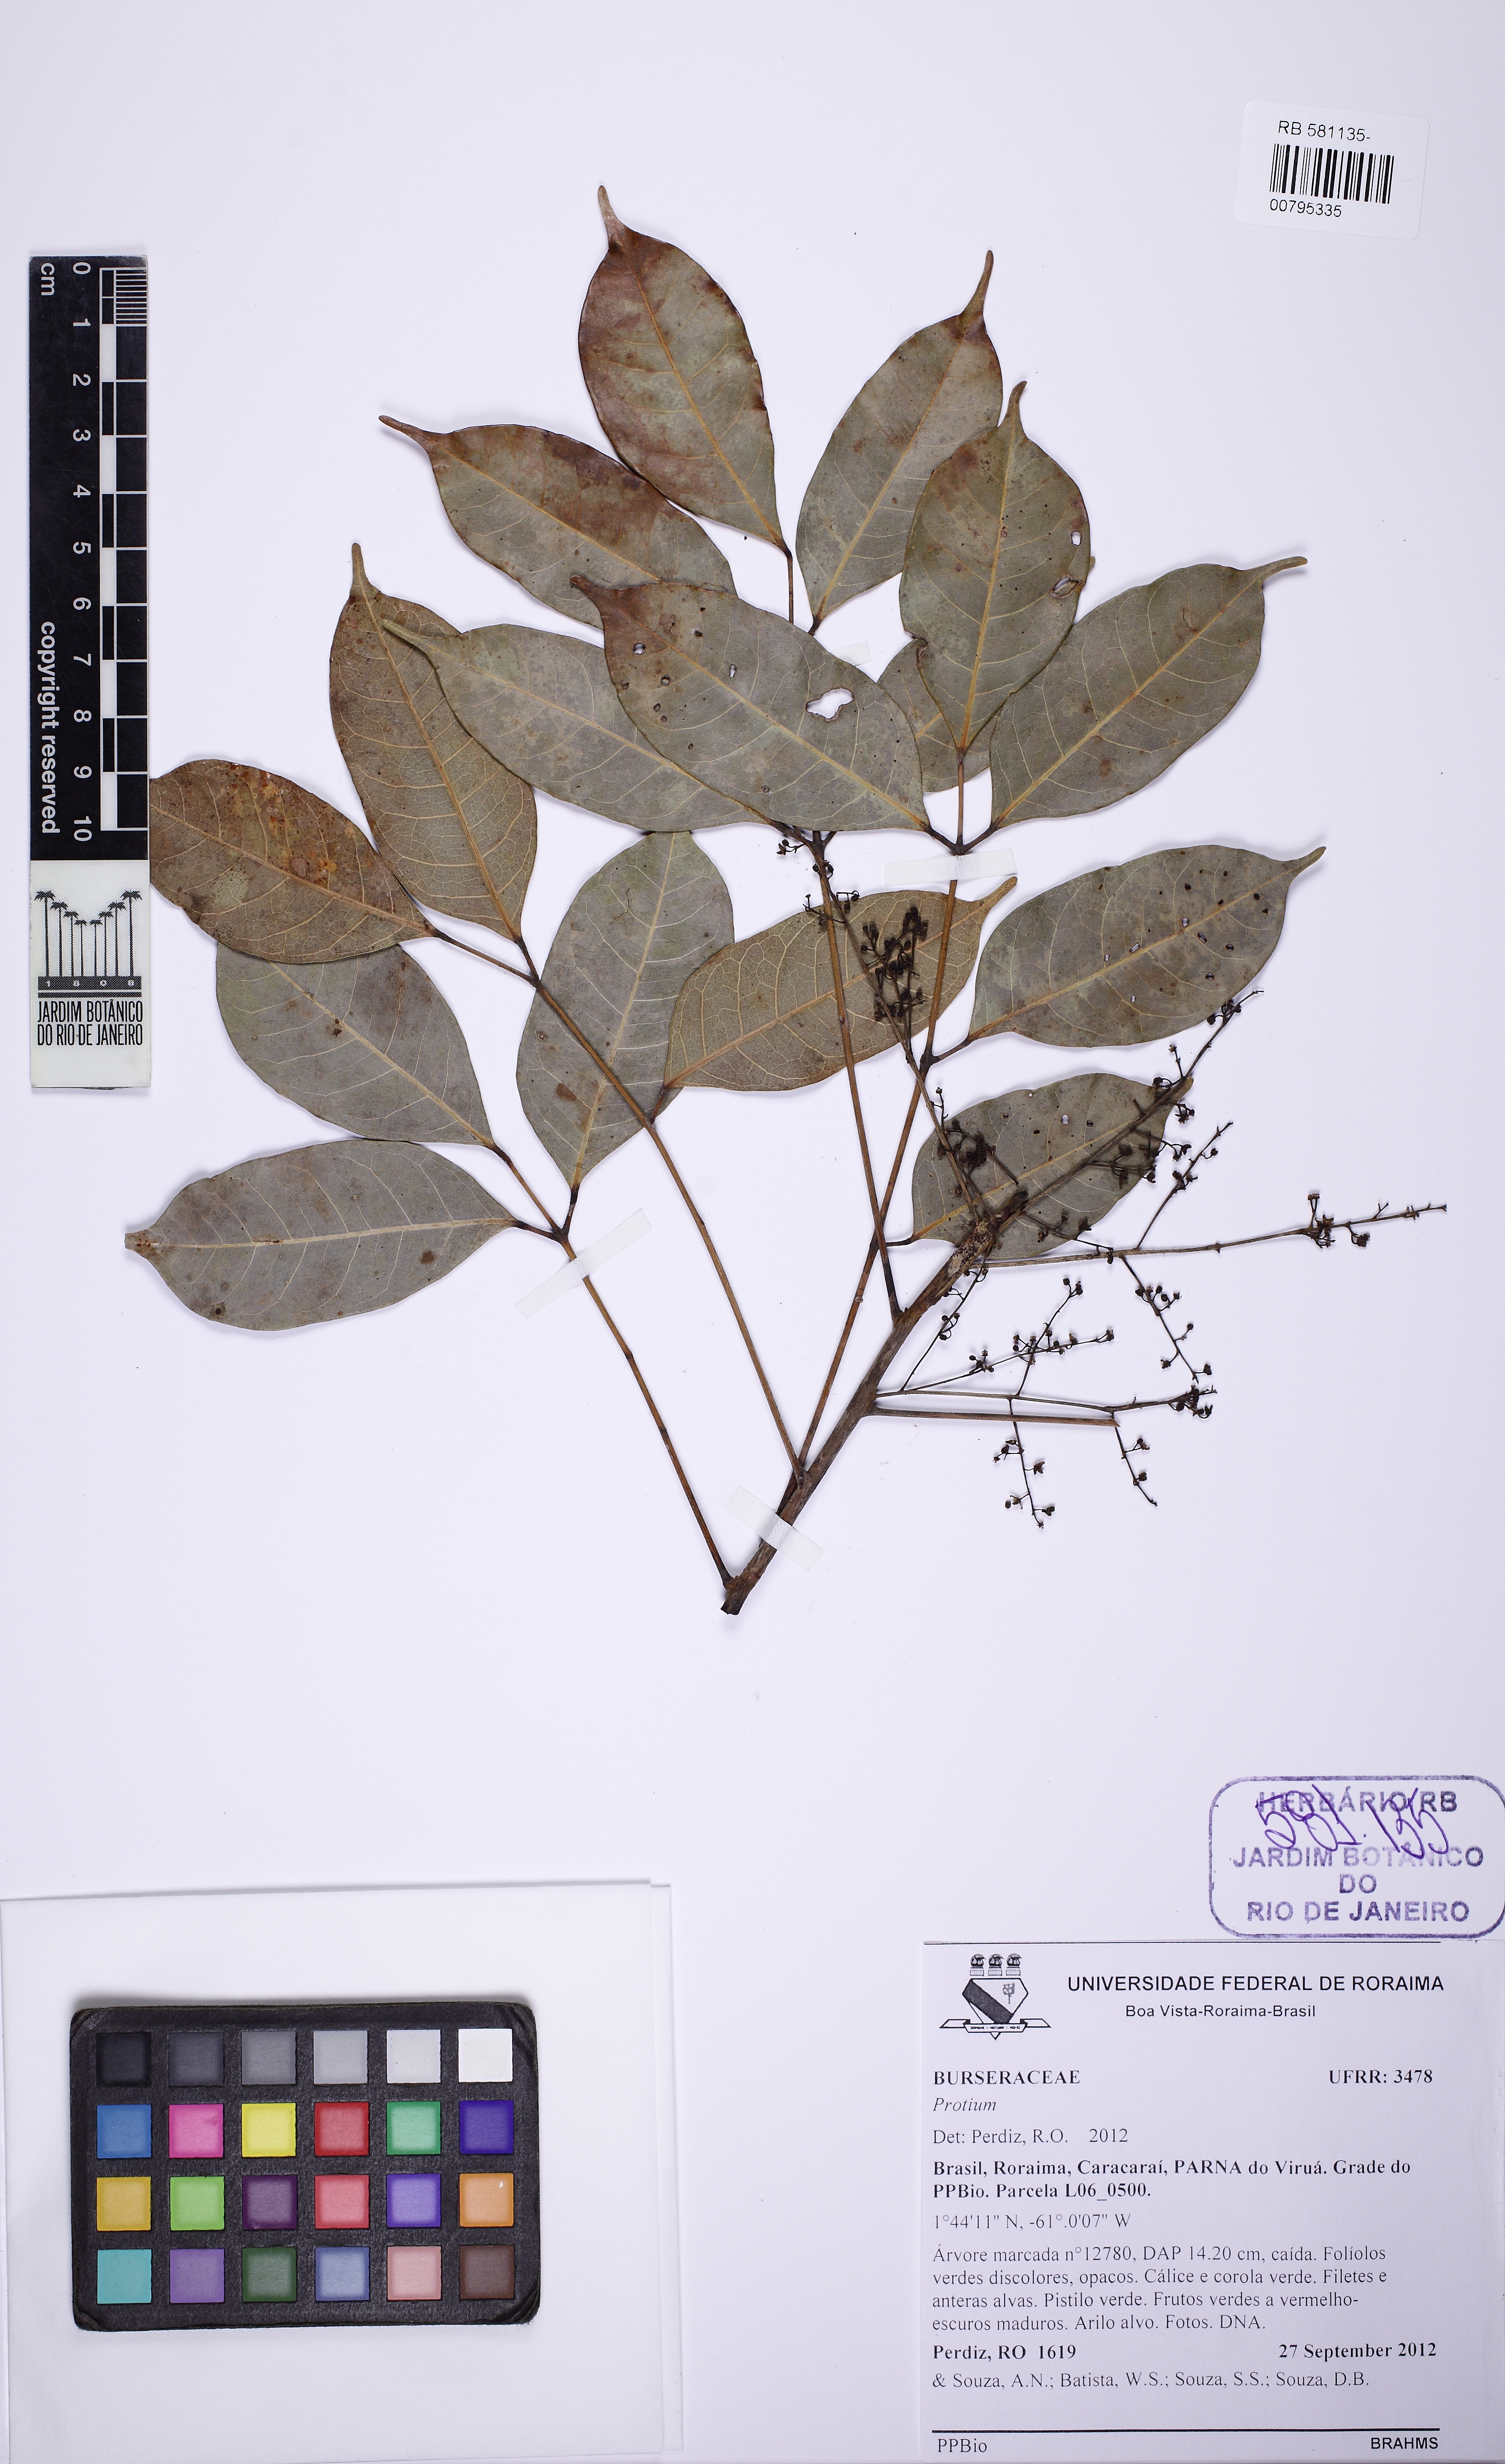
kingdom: Plantae
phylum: Tracheophyta
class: Magnoliopsida
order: Sapindales
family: Burseraceae
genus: Protium
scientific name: Protium polybotryum
